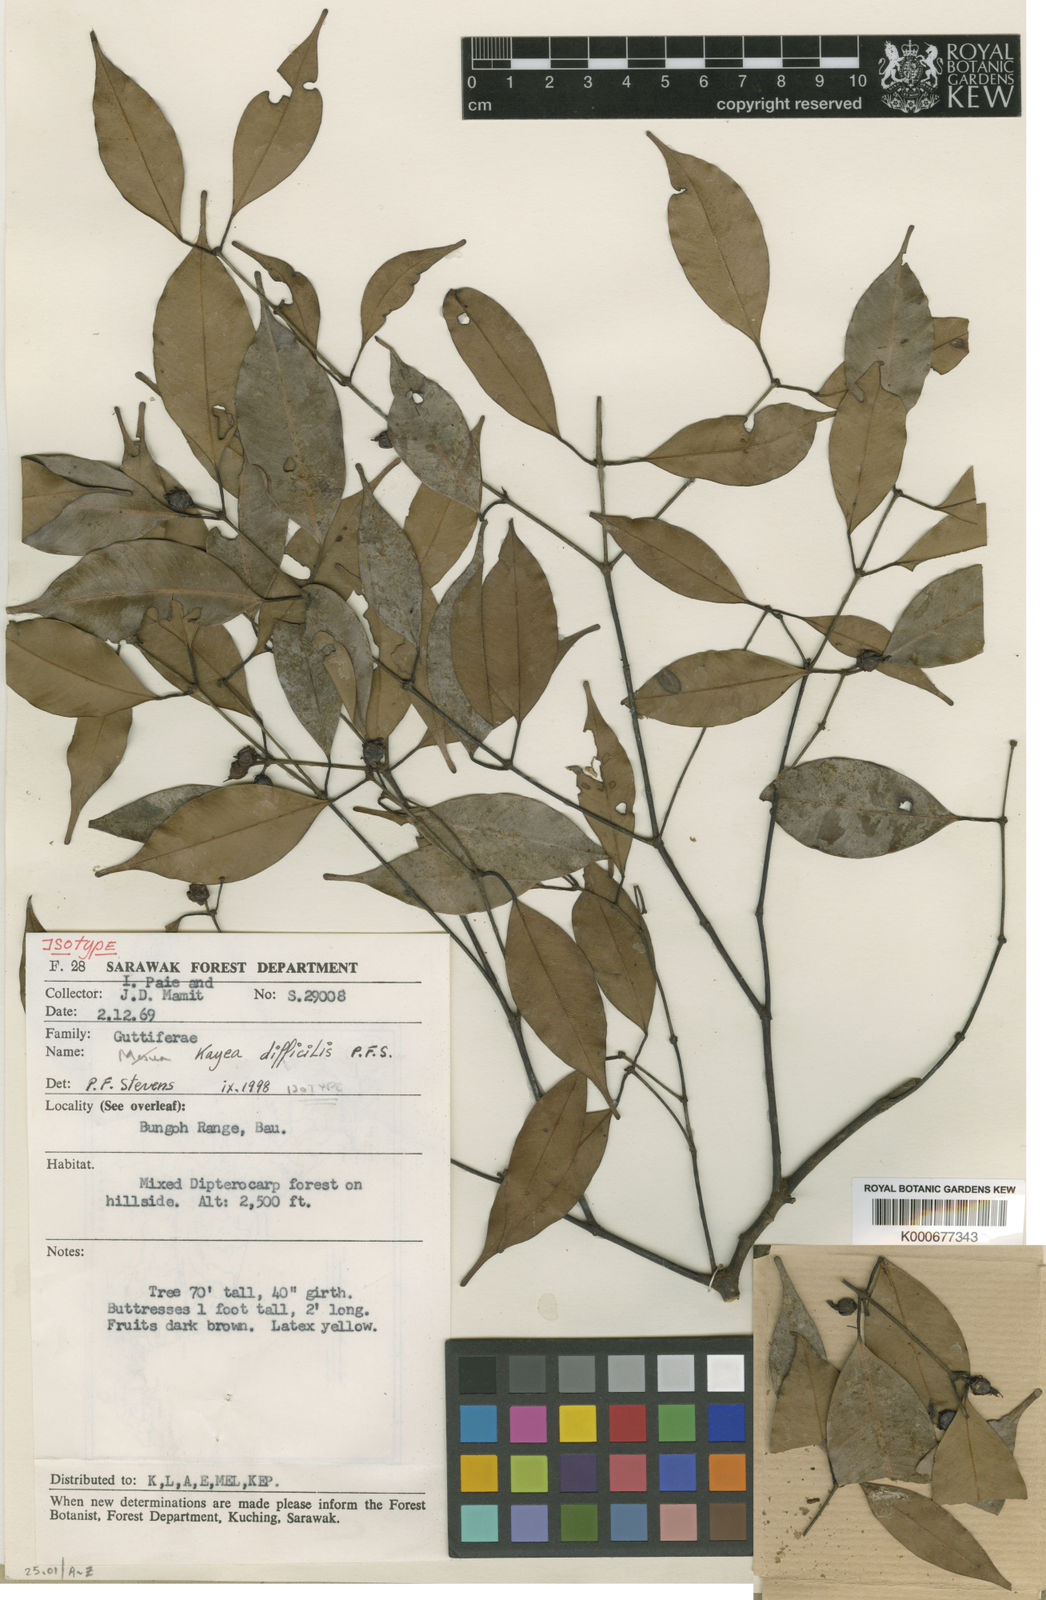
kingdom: Plantae
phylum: Tracheophyta
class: Magnoliopsida
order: Malpighiales
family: Calophyllaceae
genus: Kayea
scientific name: Kayea elmeri
